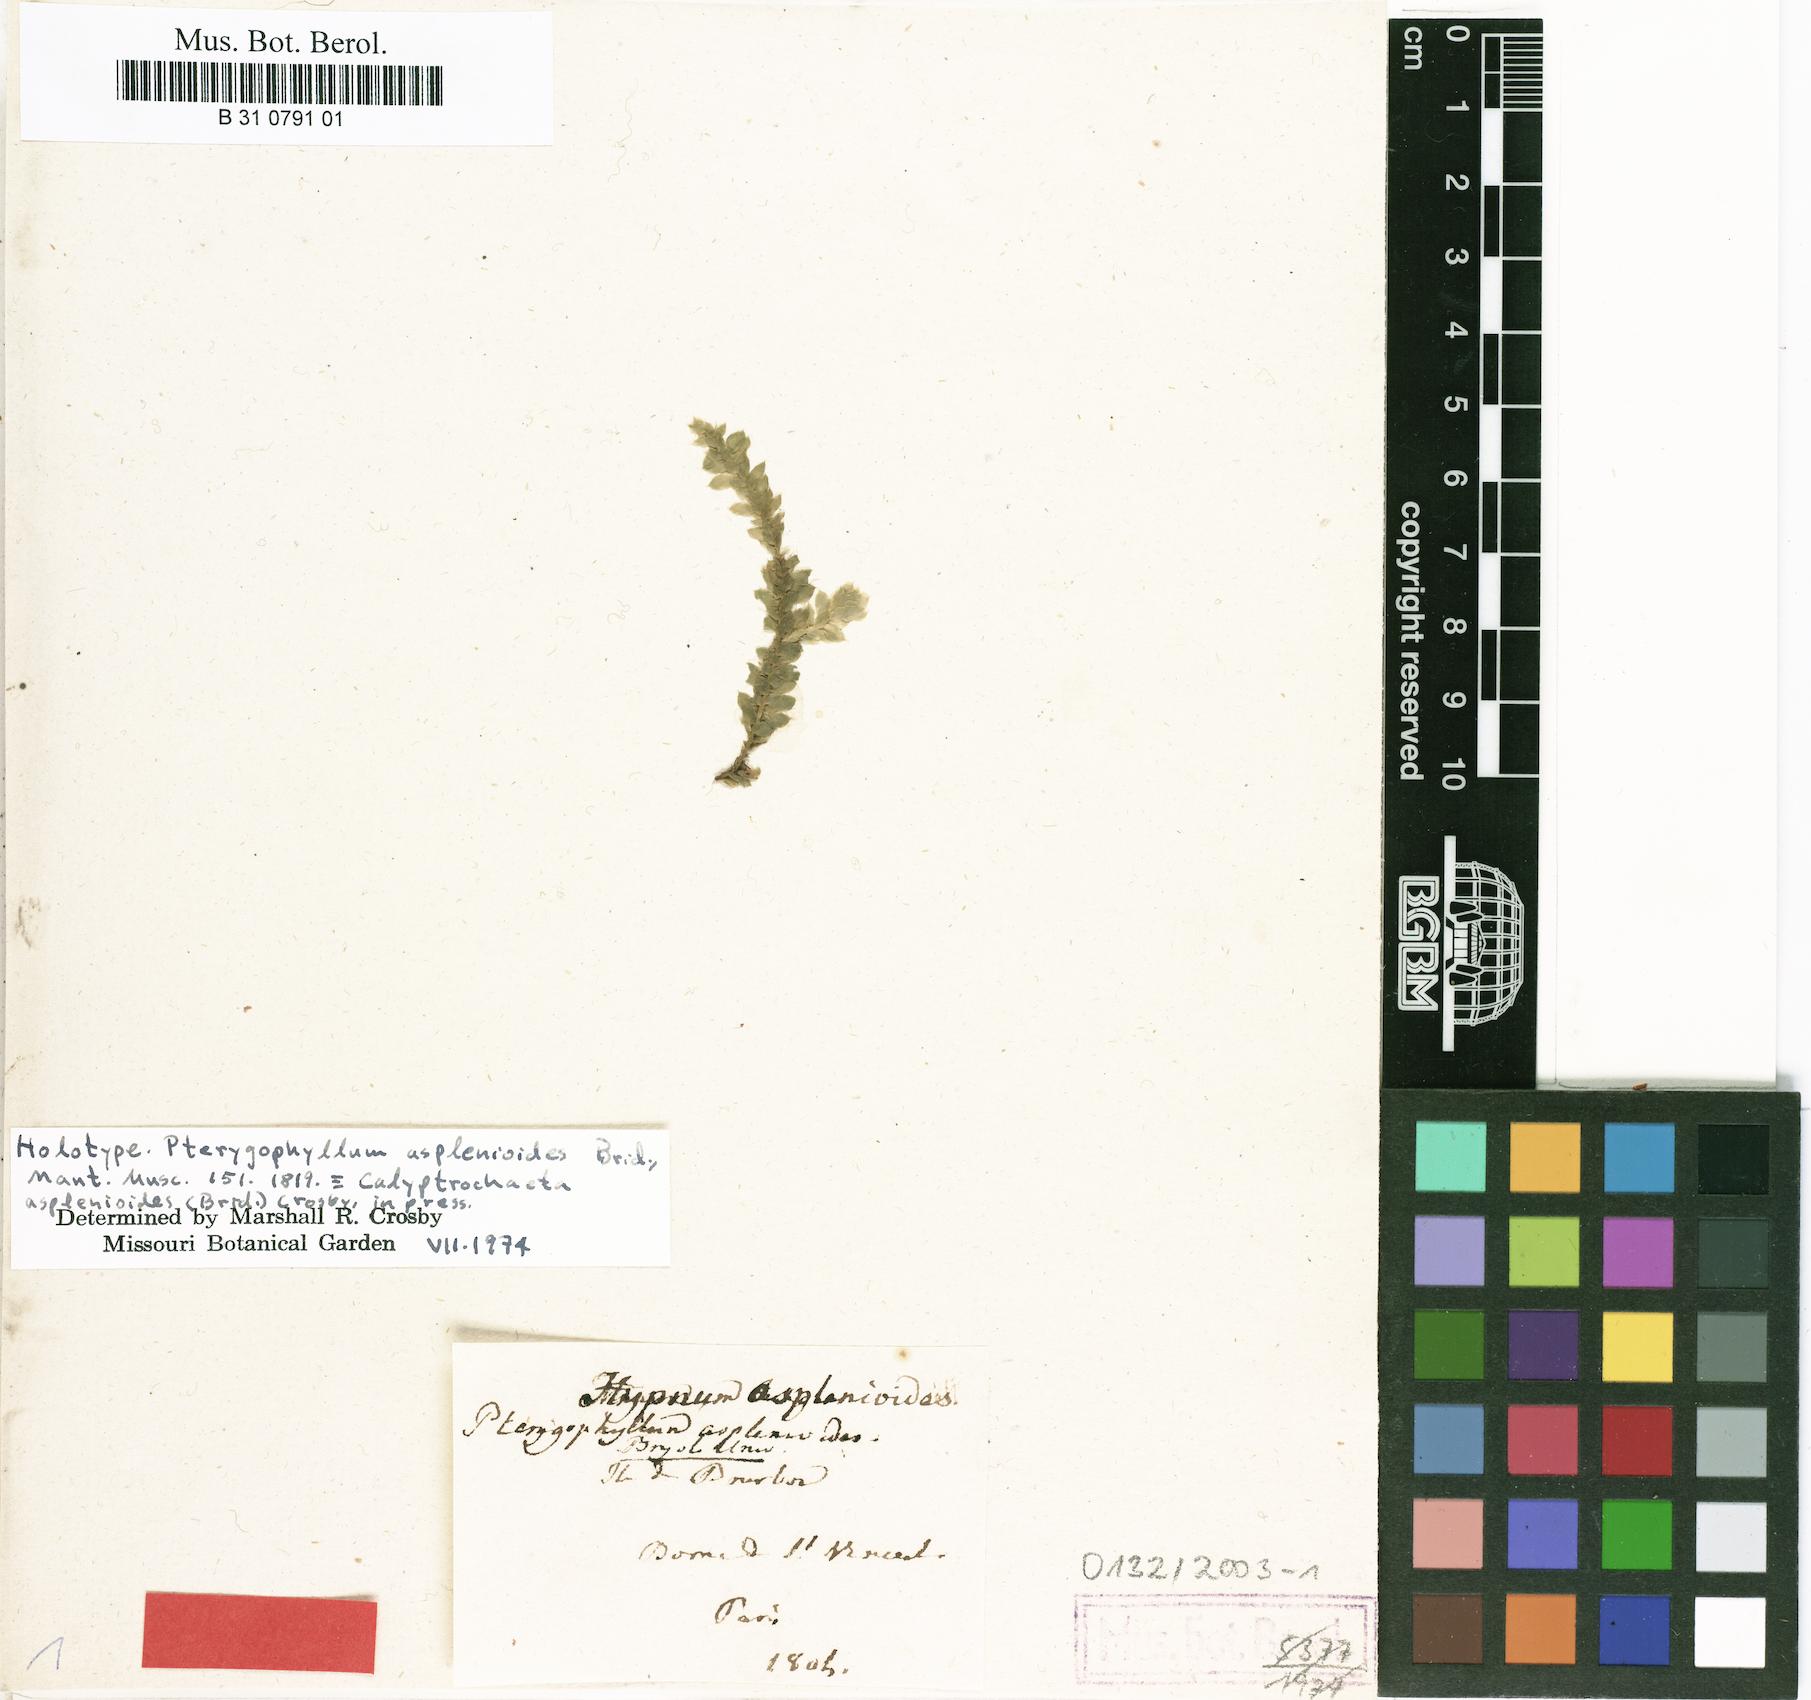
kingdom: Plantae
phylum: Bryophyta
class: Bryopsida
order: Hookeriales
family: Daltoniaceae
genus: Calyptrochaeta
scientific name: Calyptrochaeta asplenioides
